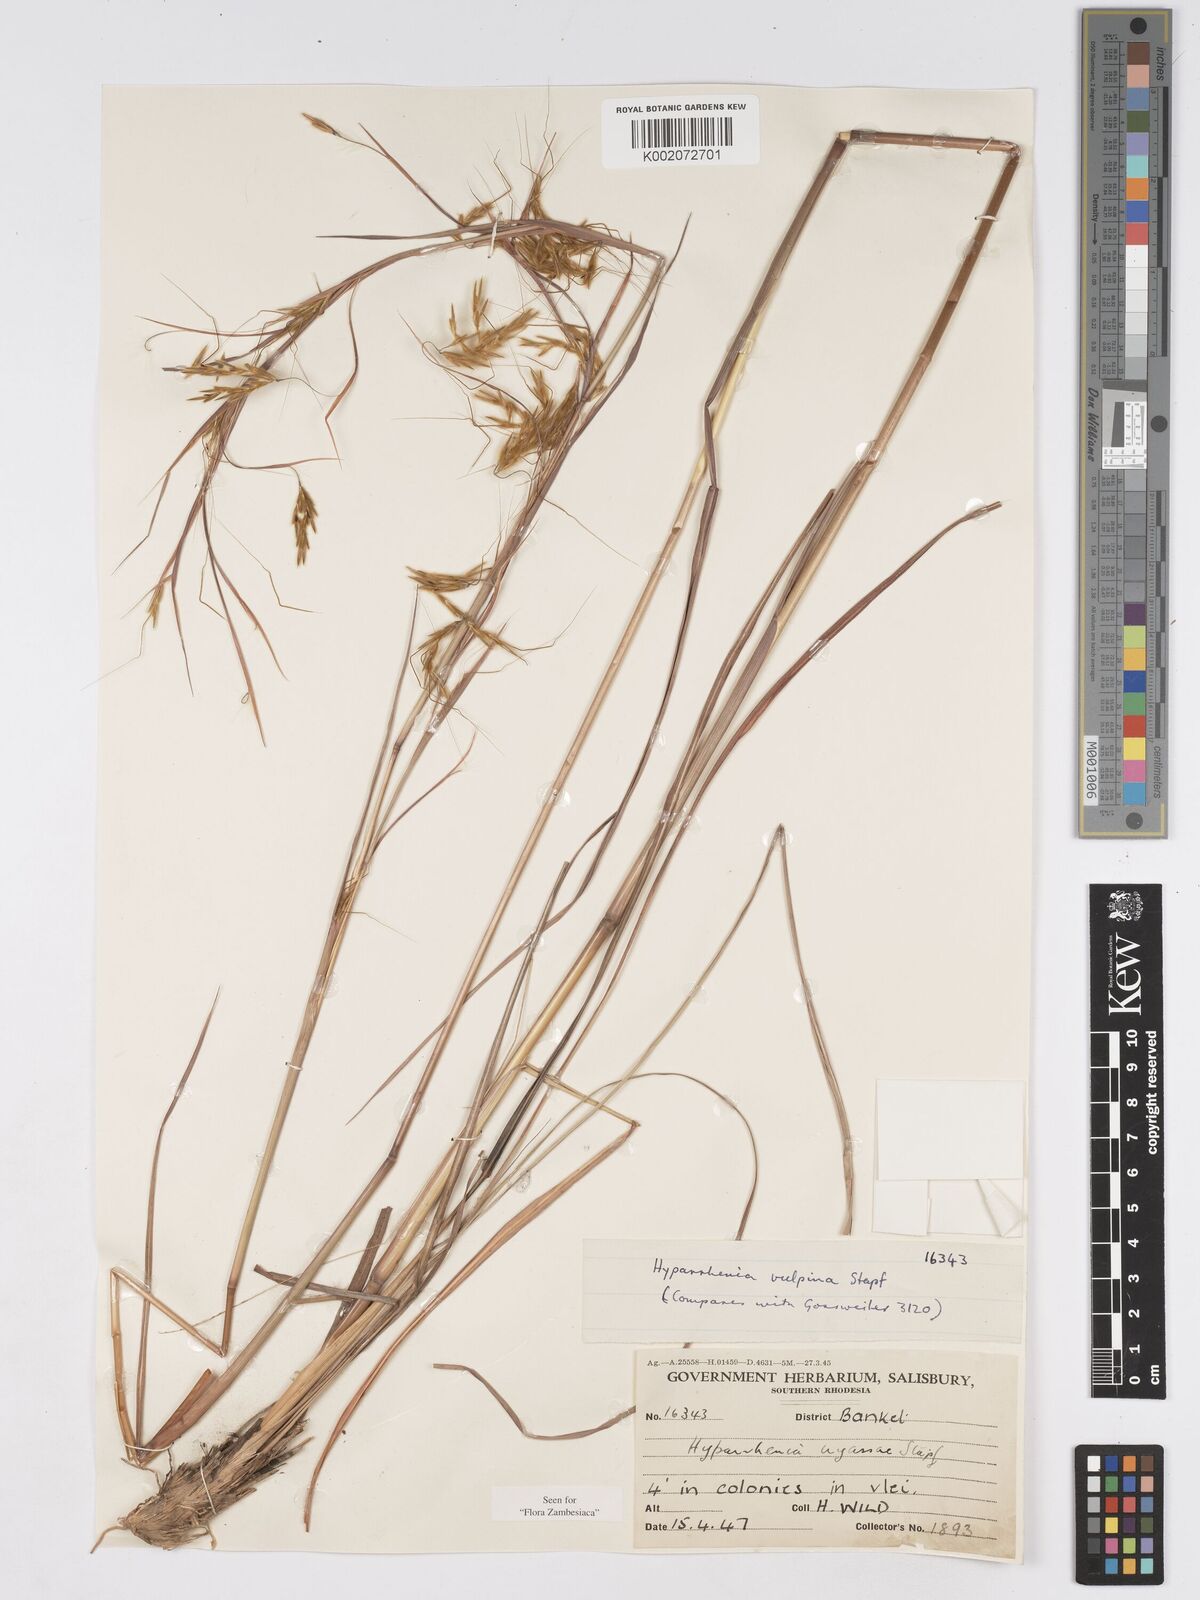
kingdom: Plantae
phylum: Tracheophyta
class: Liliopsida
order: Poales
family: Poaceae
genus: Hyparrhenia
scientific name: Hyparrhenia nyassae
